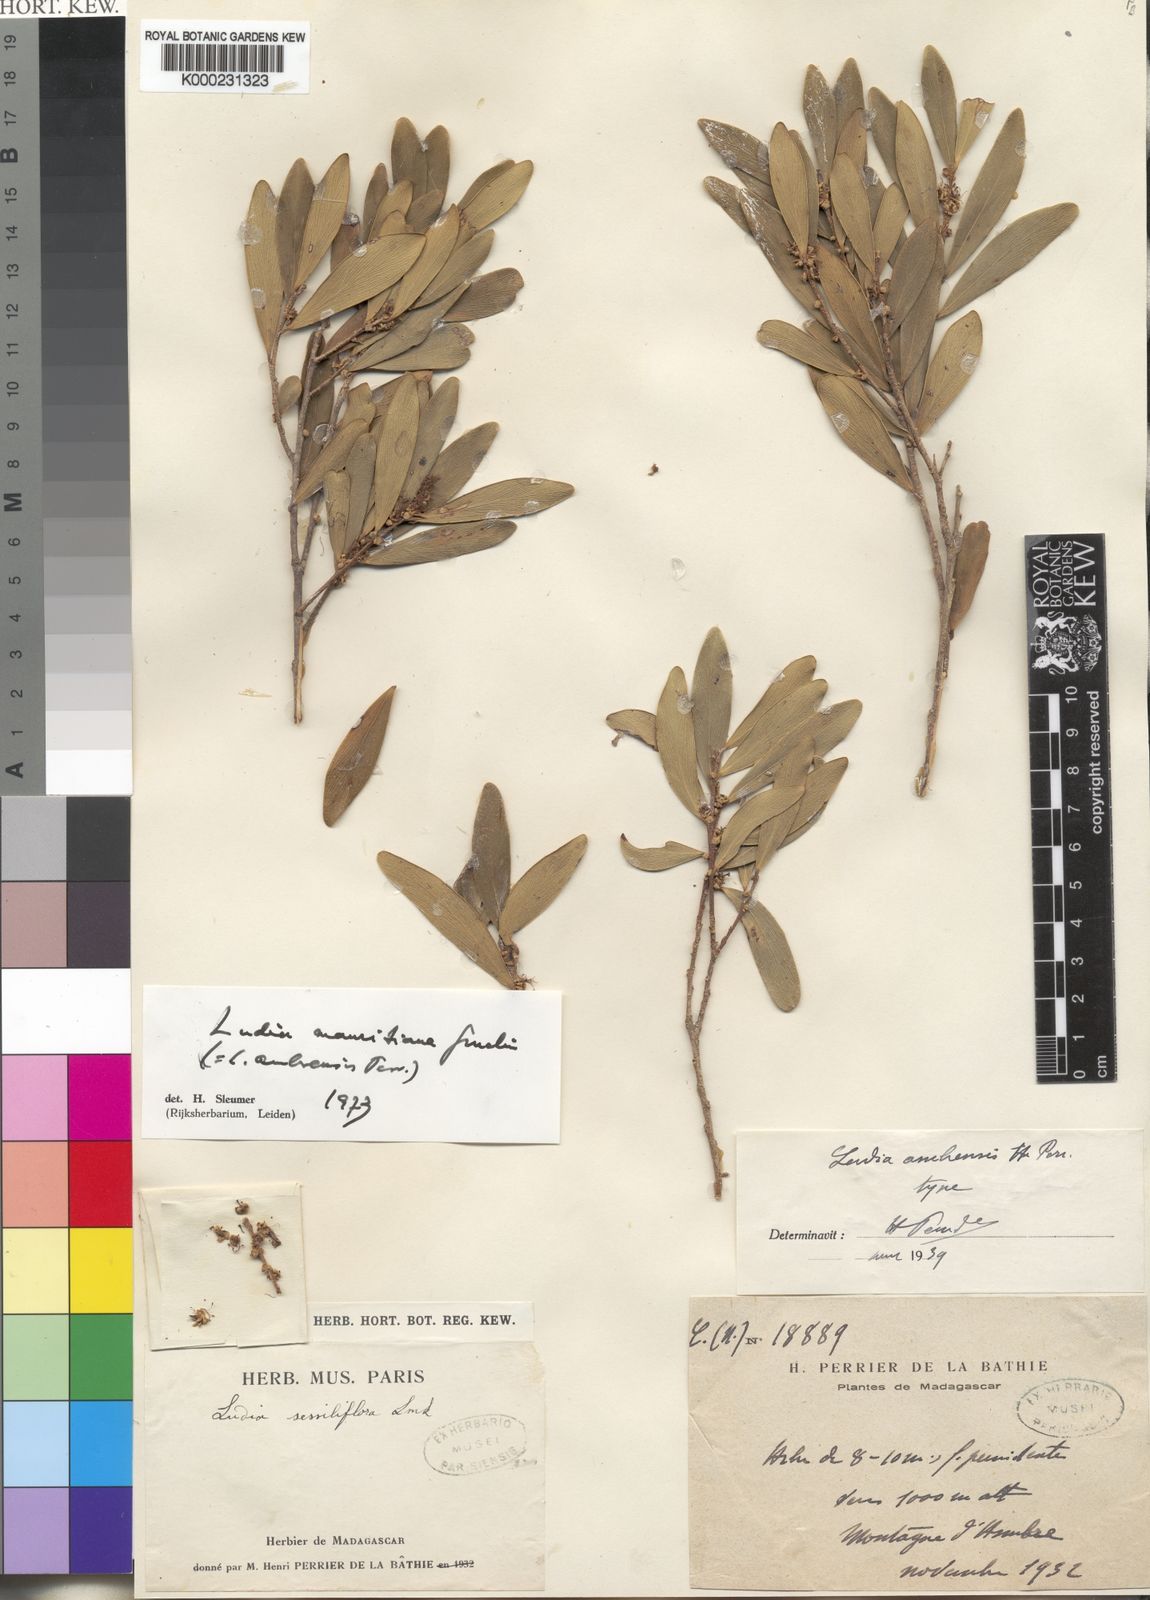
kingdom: Plantae
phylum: Tracheophyta
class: Magnoliopsida
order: Malpighiales
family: Salicaceae
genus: Ludia
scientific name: Ludia mauritiana
